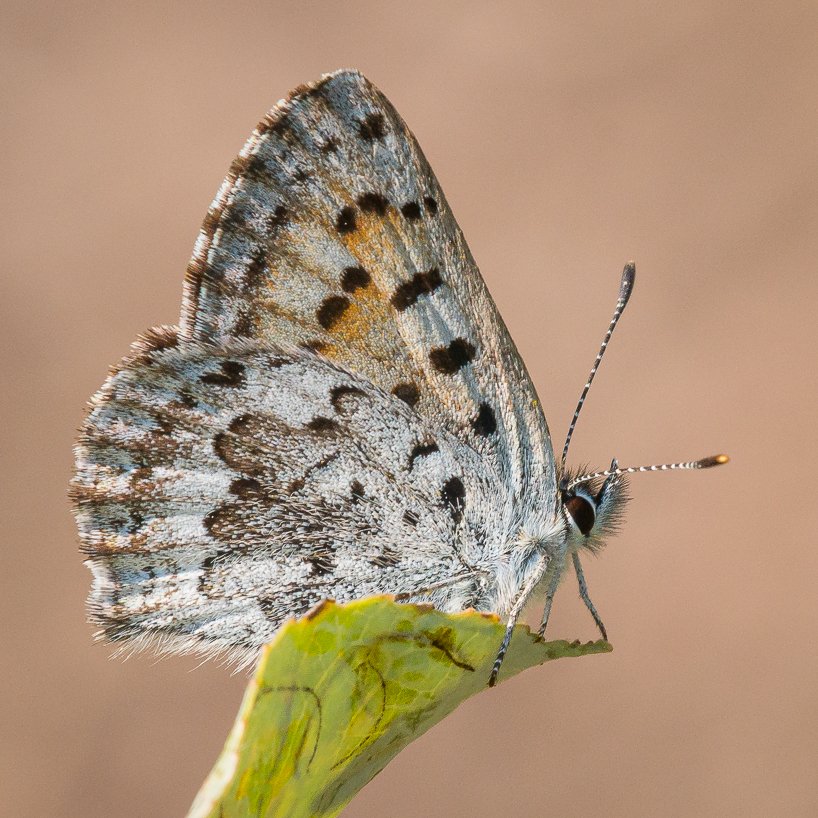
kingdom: Animalia
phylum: Arthropoda
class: Insecta
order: Lepidoptera
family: Lycaenidae
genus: Lycaena
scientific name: Lycaena mariposa
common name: Mariposa Copper
